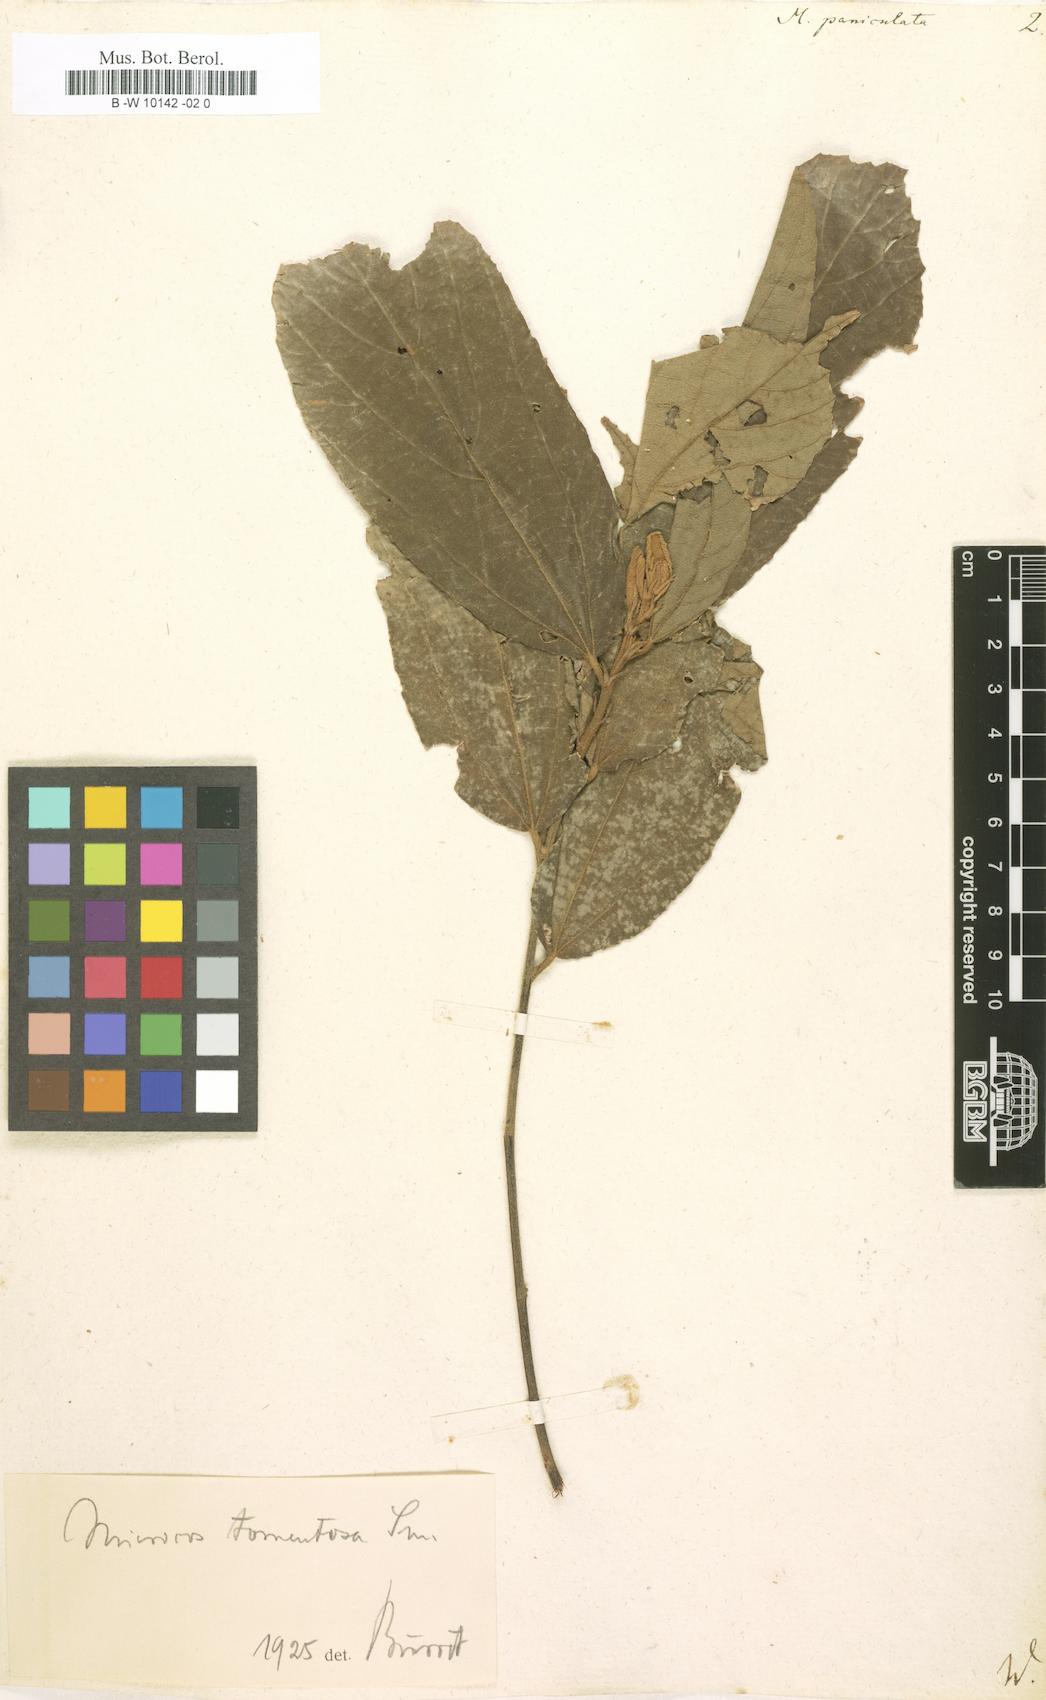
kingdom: Plantae
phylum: Tracheophyta
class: Magnoliopsida
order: Malvales
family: Malvaceae
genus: Microcos
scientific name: Microcos paniculata
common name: Microcos
